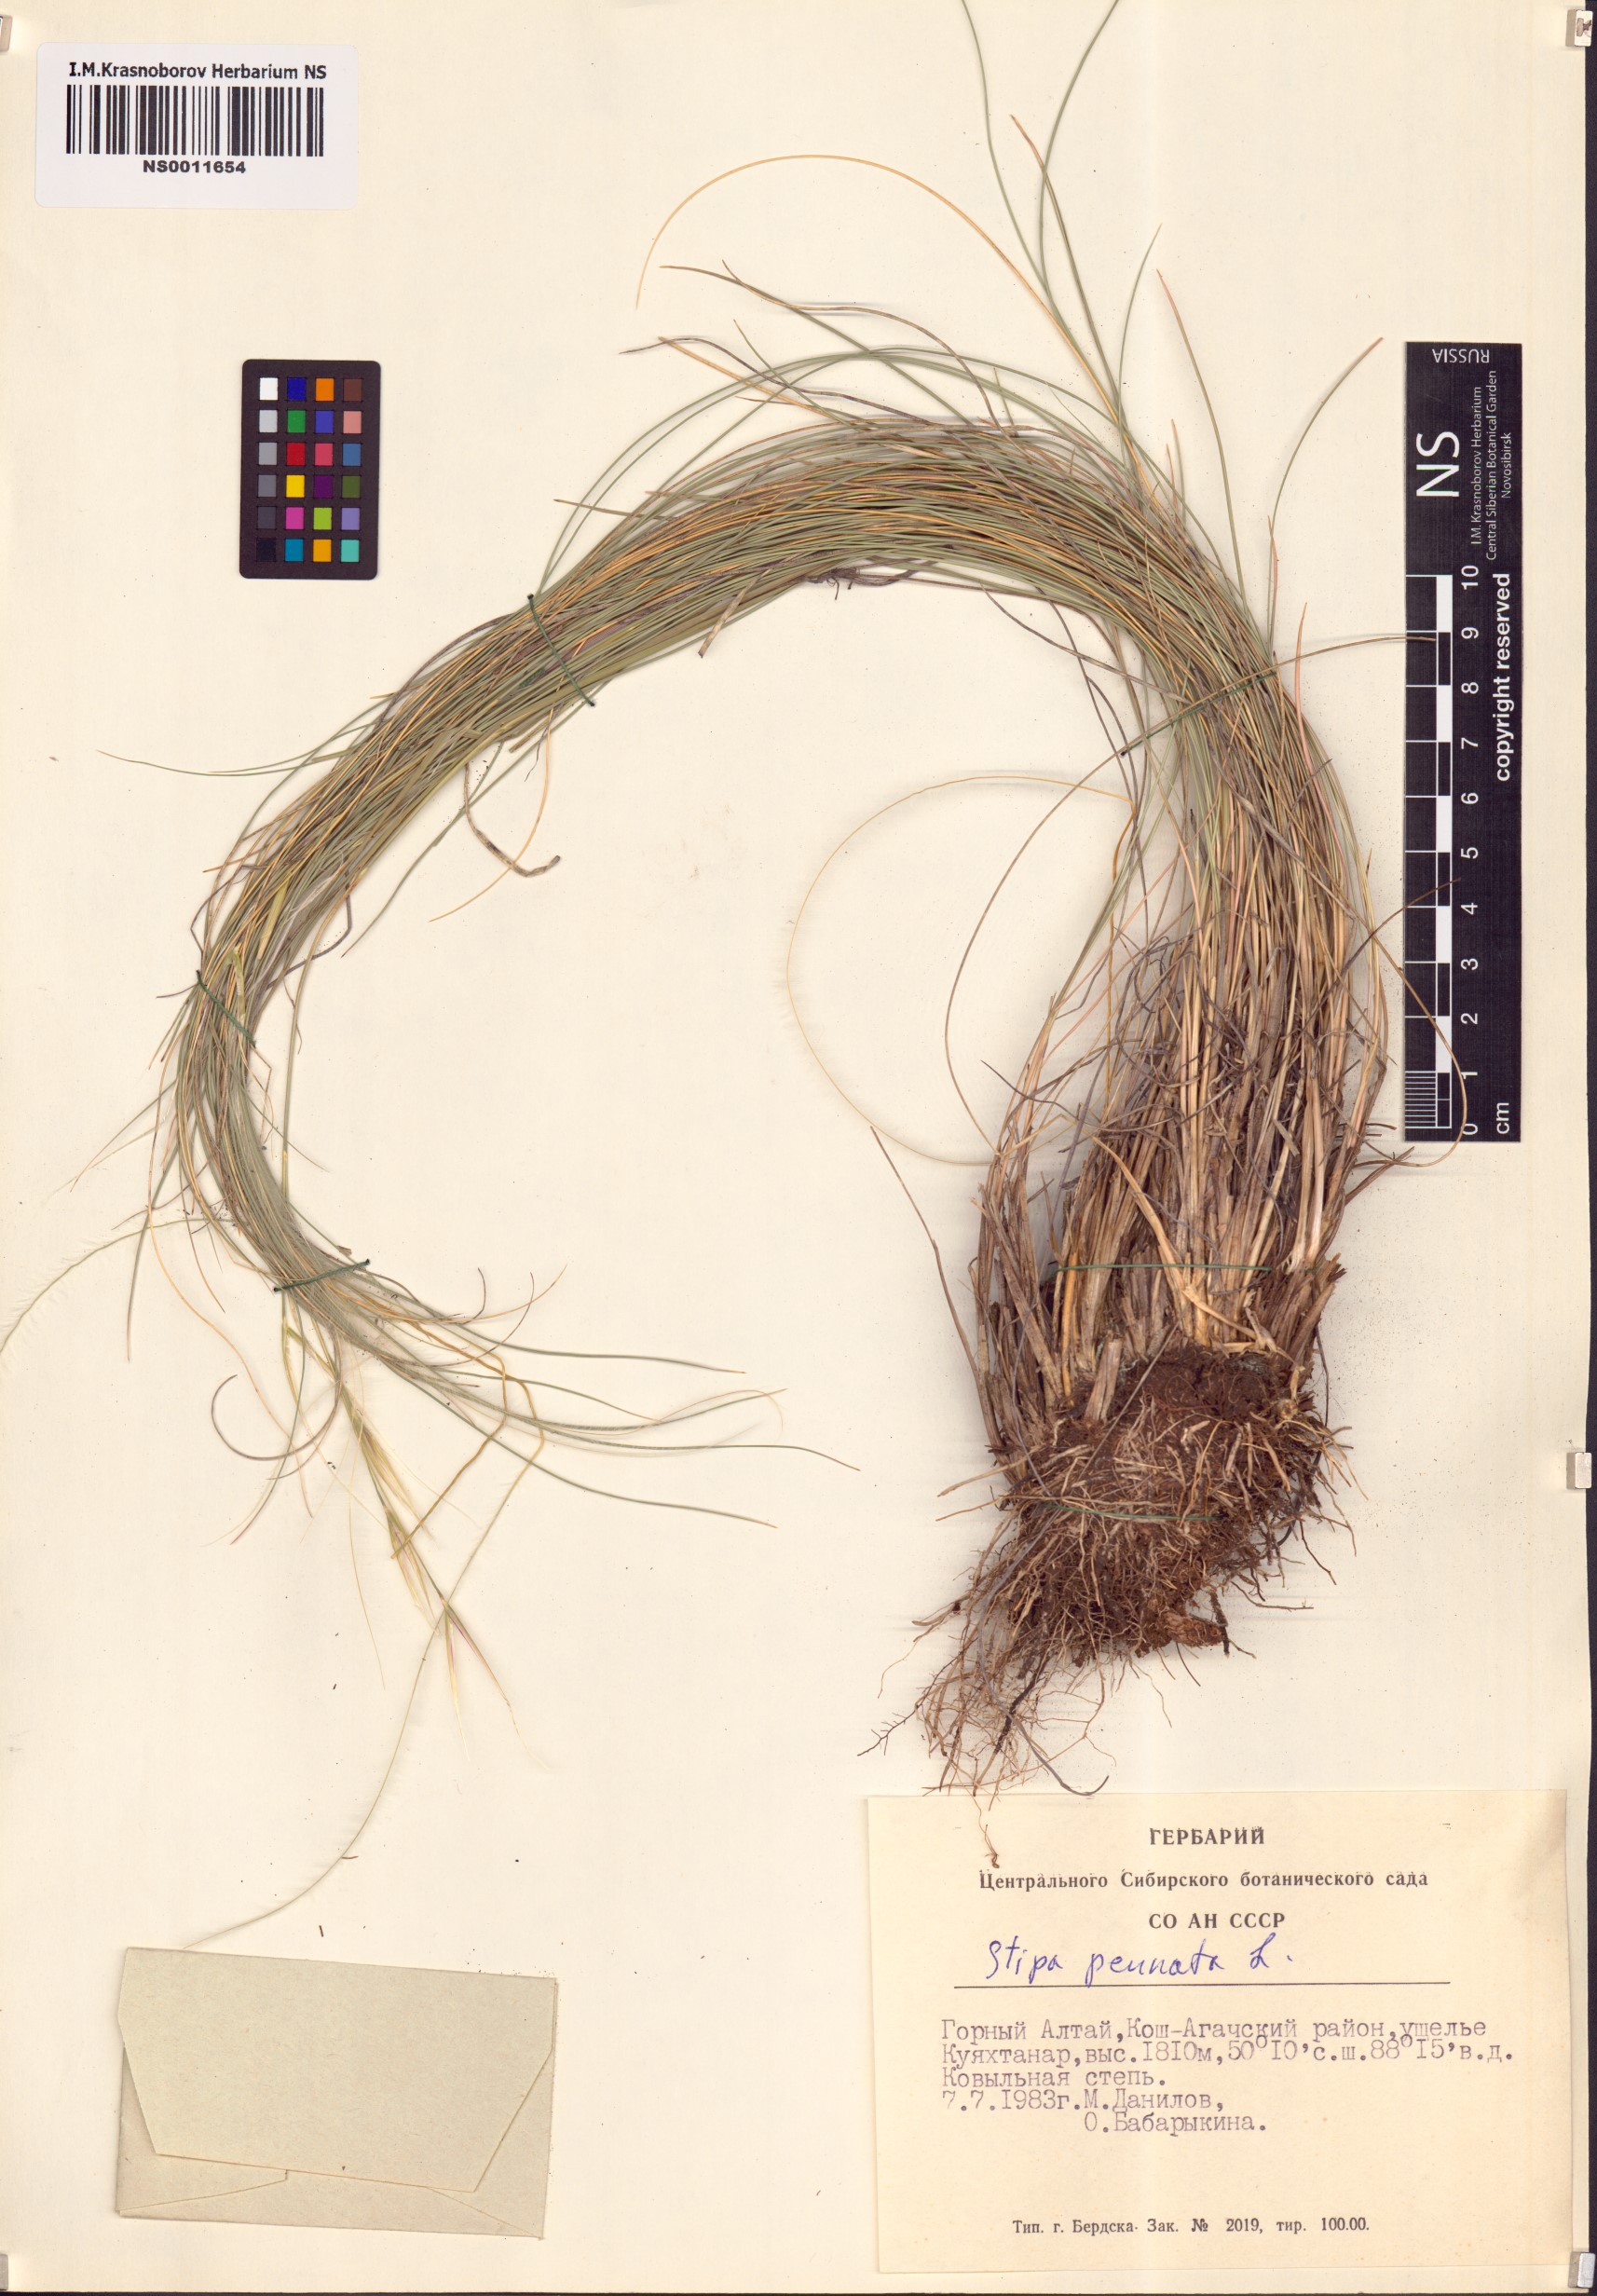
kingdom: Plantae
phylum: Tracheophyta
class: Liliopsida
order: Poales
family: Poaceae
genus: Stipa
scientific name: Stipa pennata
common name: European feather grass
